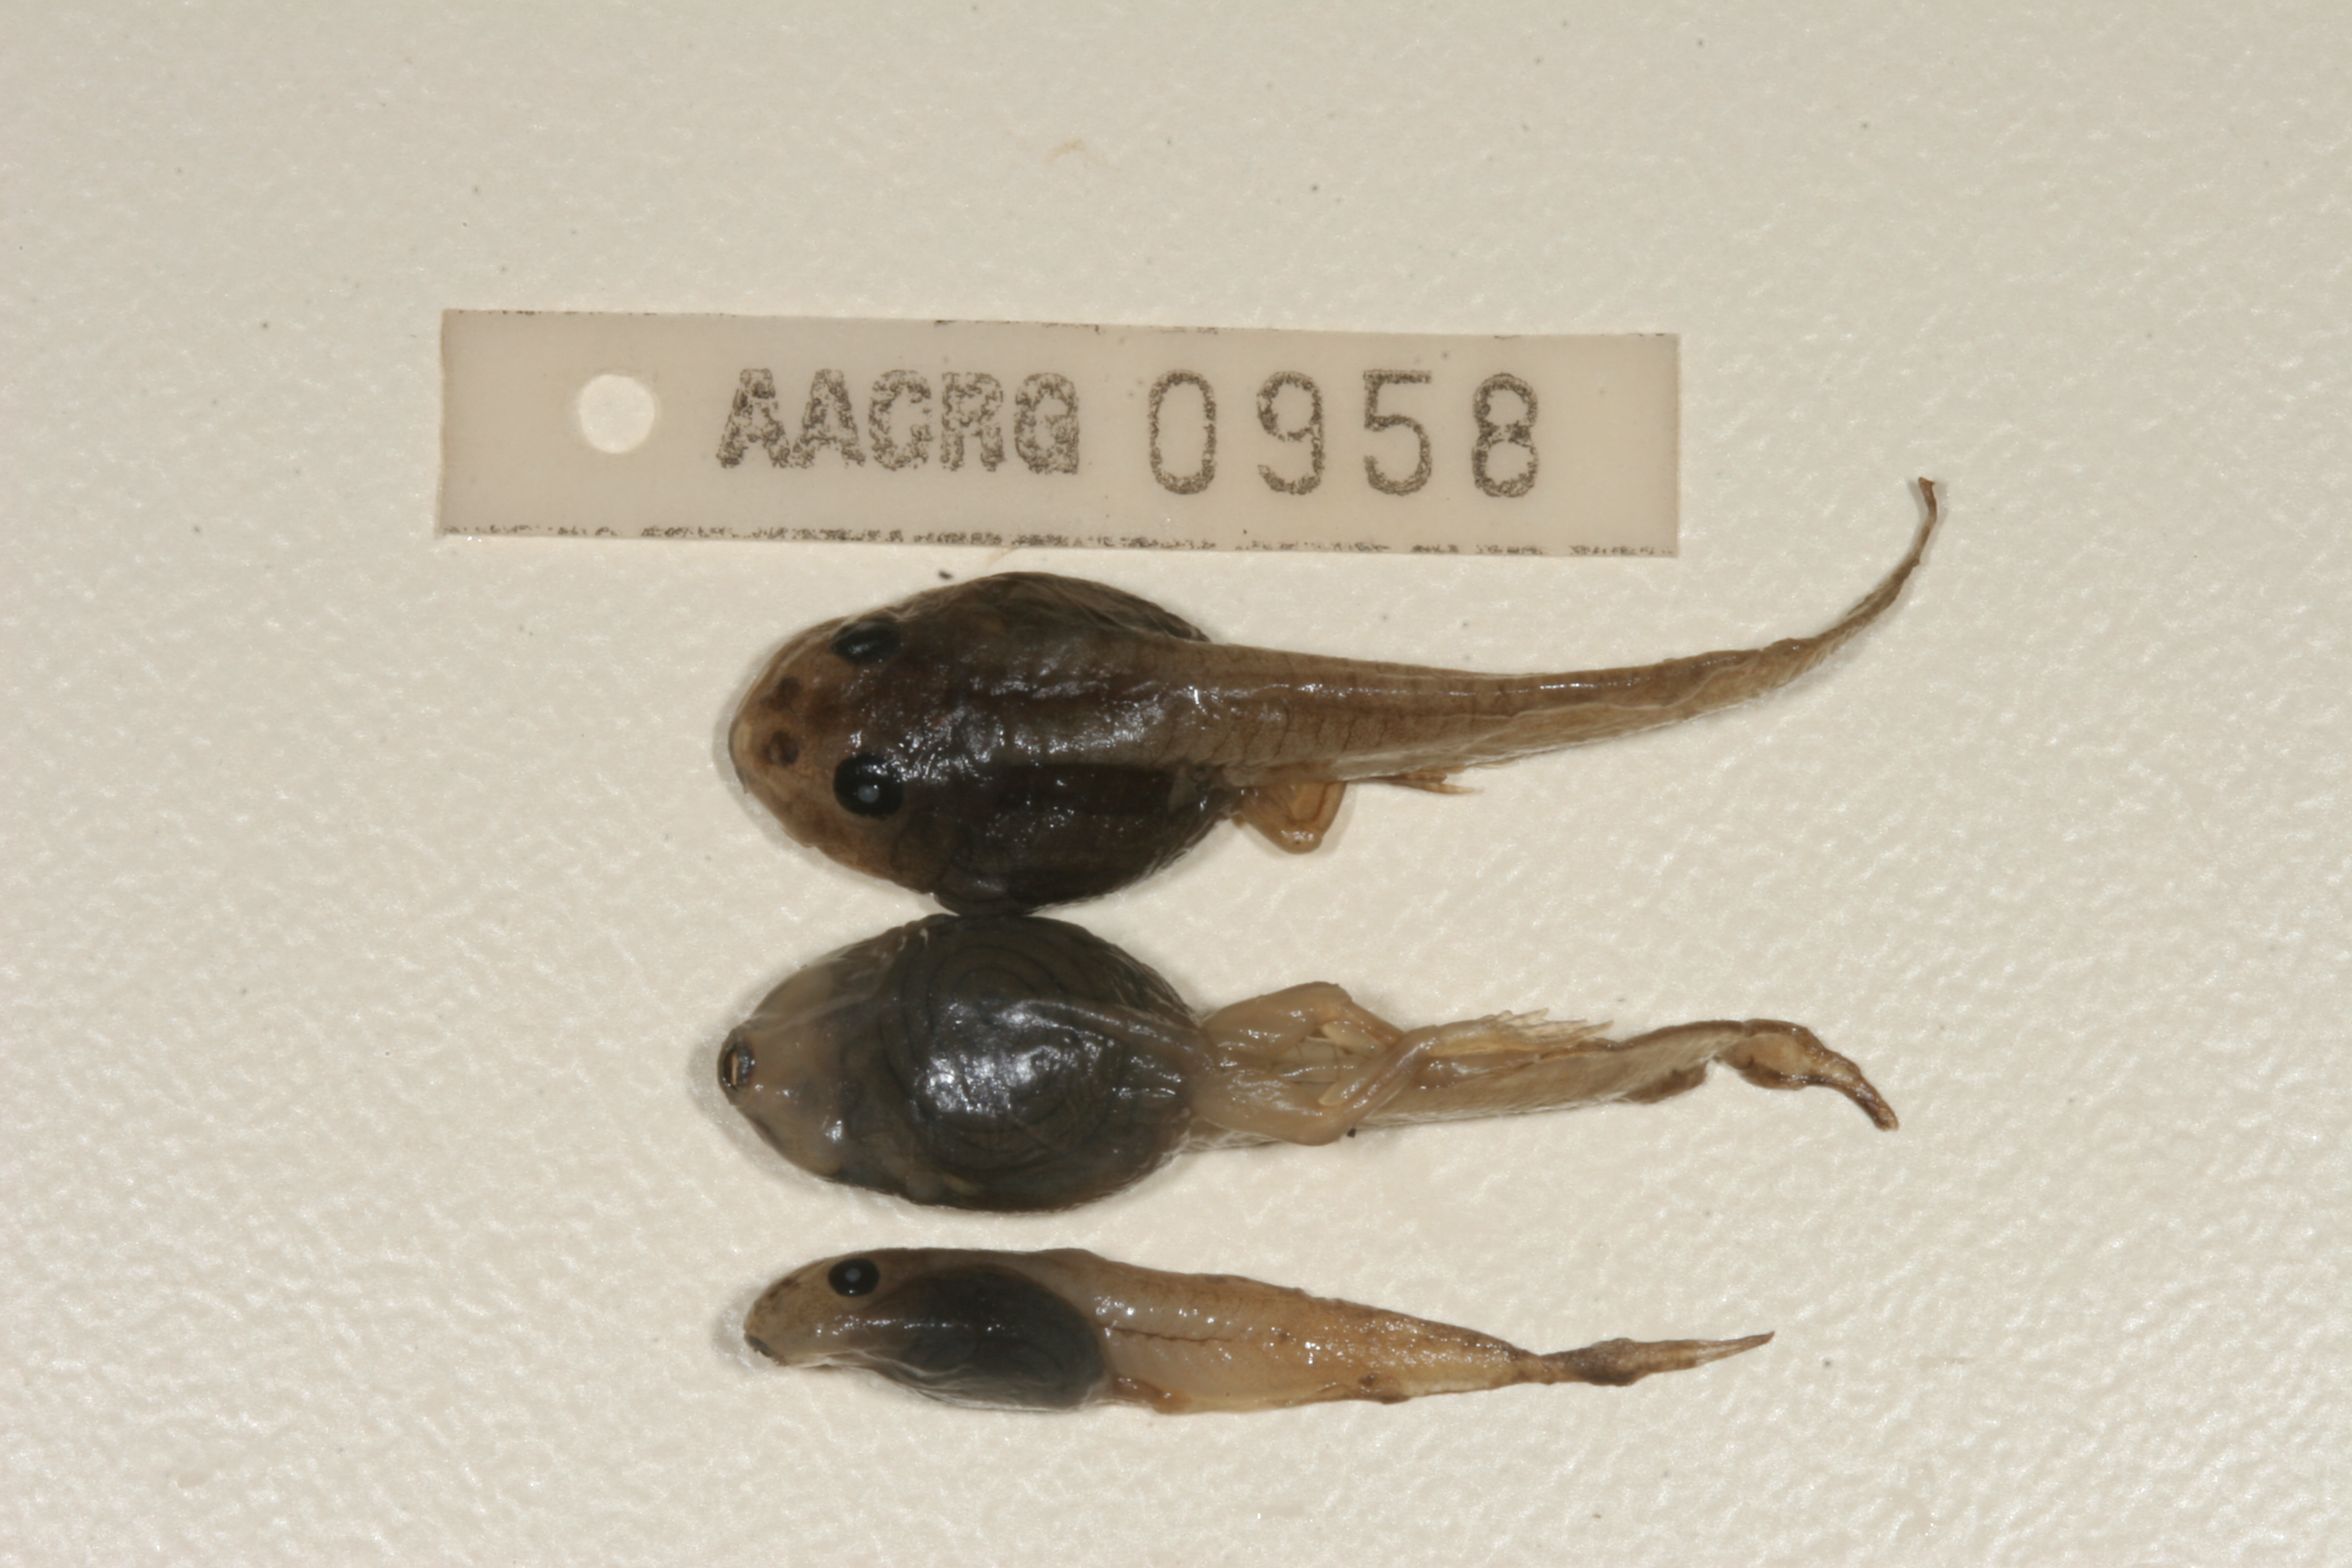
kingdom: Animalia
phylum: Chordata
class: Amphibia
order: Anura
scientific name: Anura
